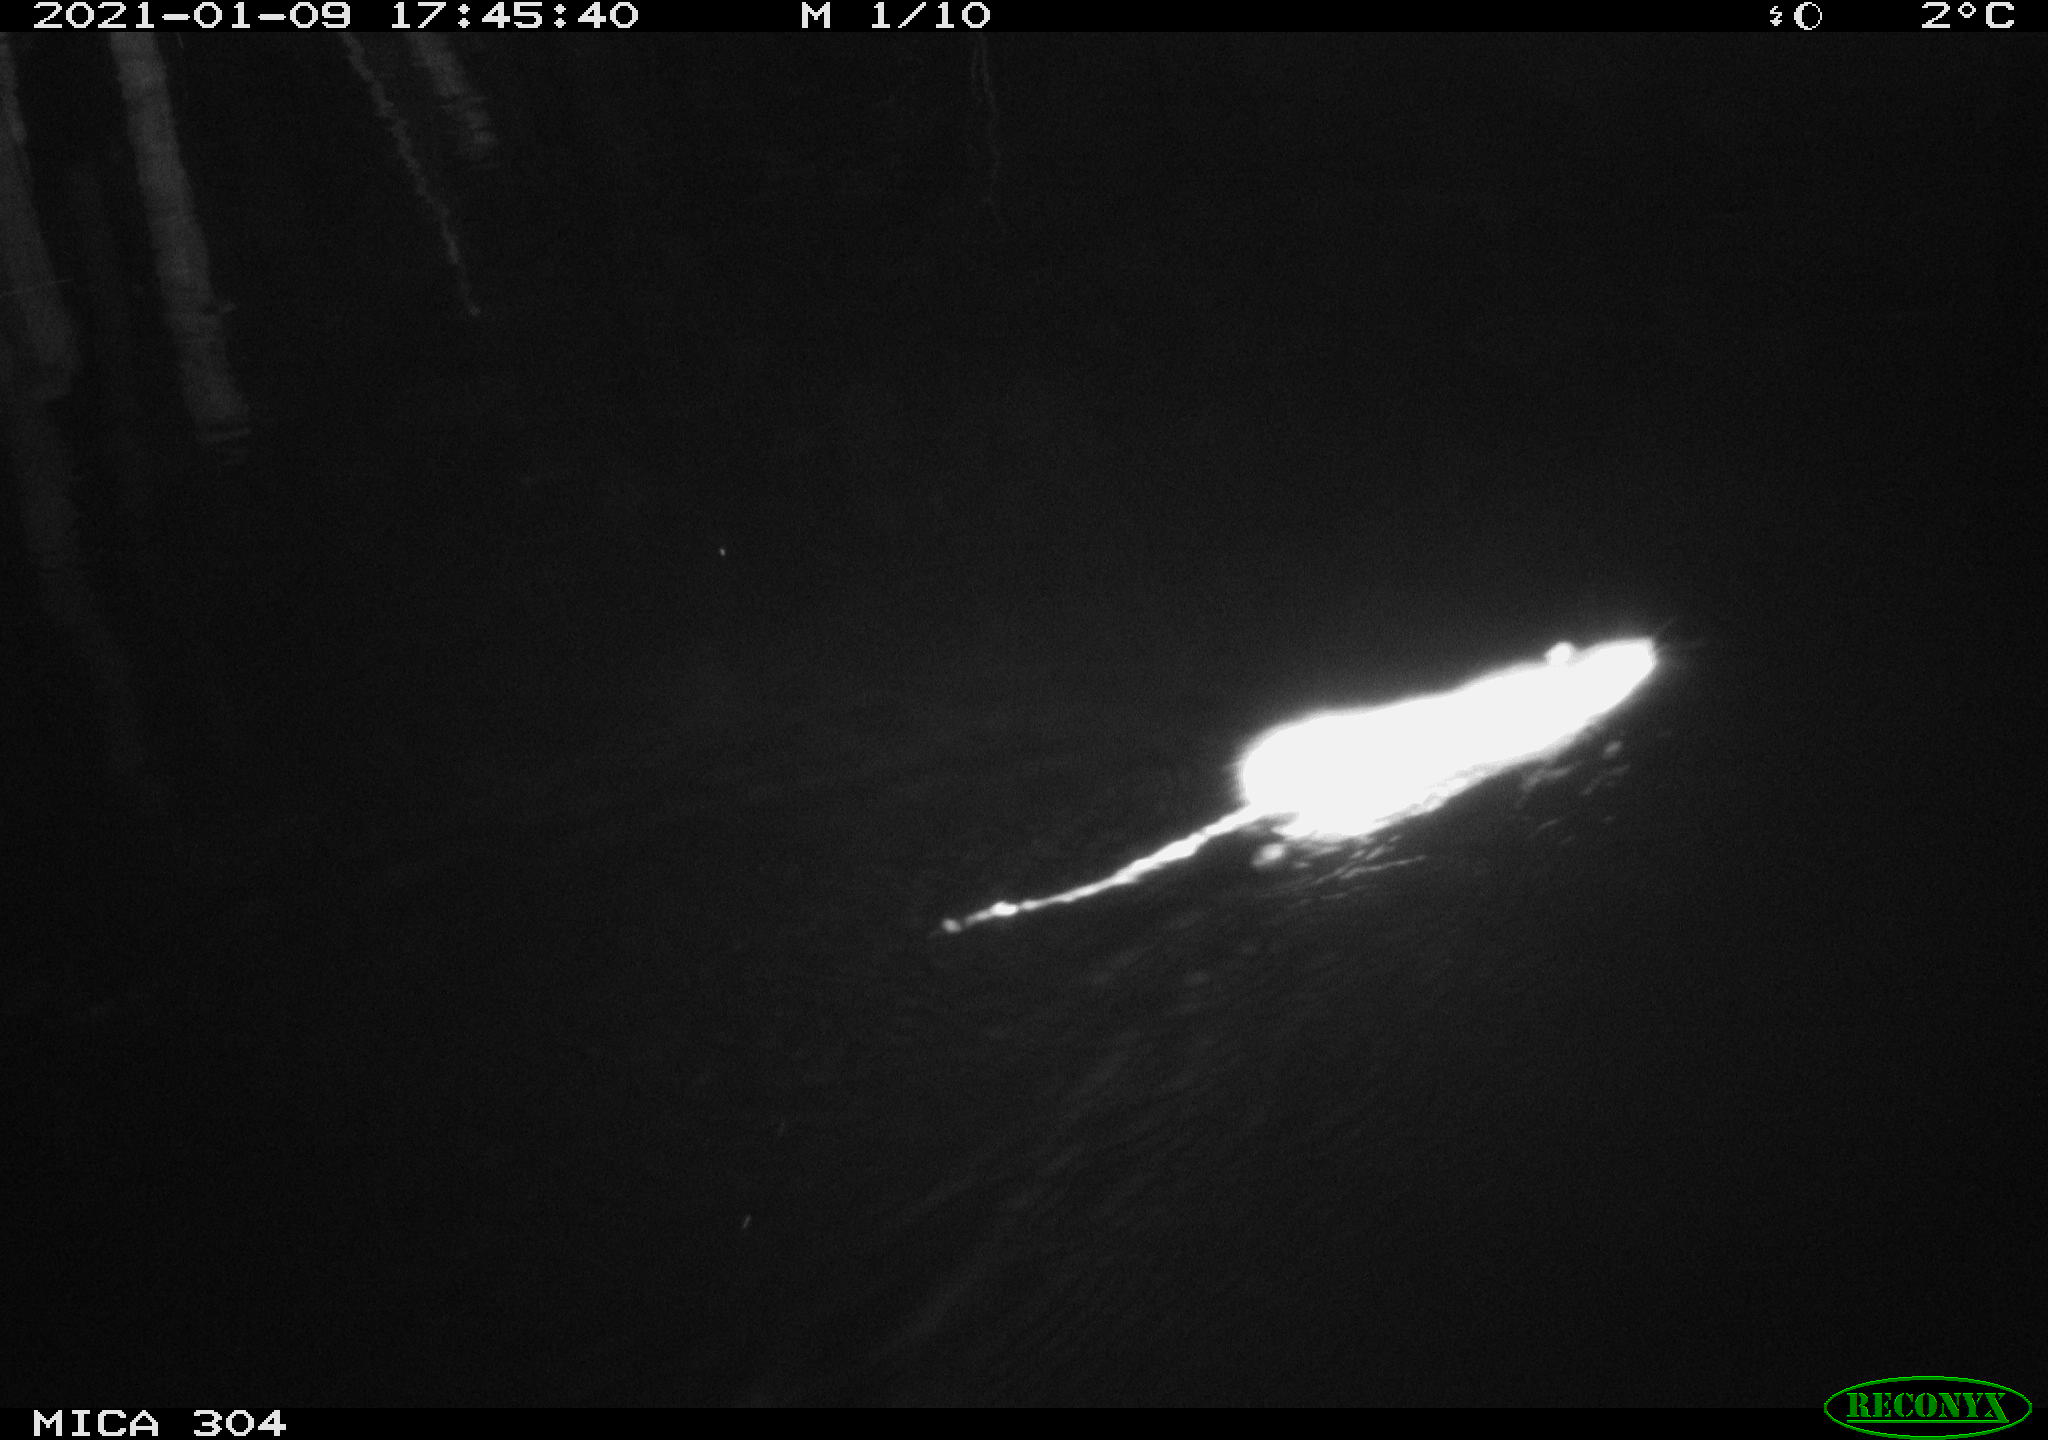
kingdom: Animalia
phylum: Chordata
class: Mammalia
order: Rodentia
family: Muridae
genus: Rattus
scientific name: Rattus norvegicus
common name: Brown rat
